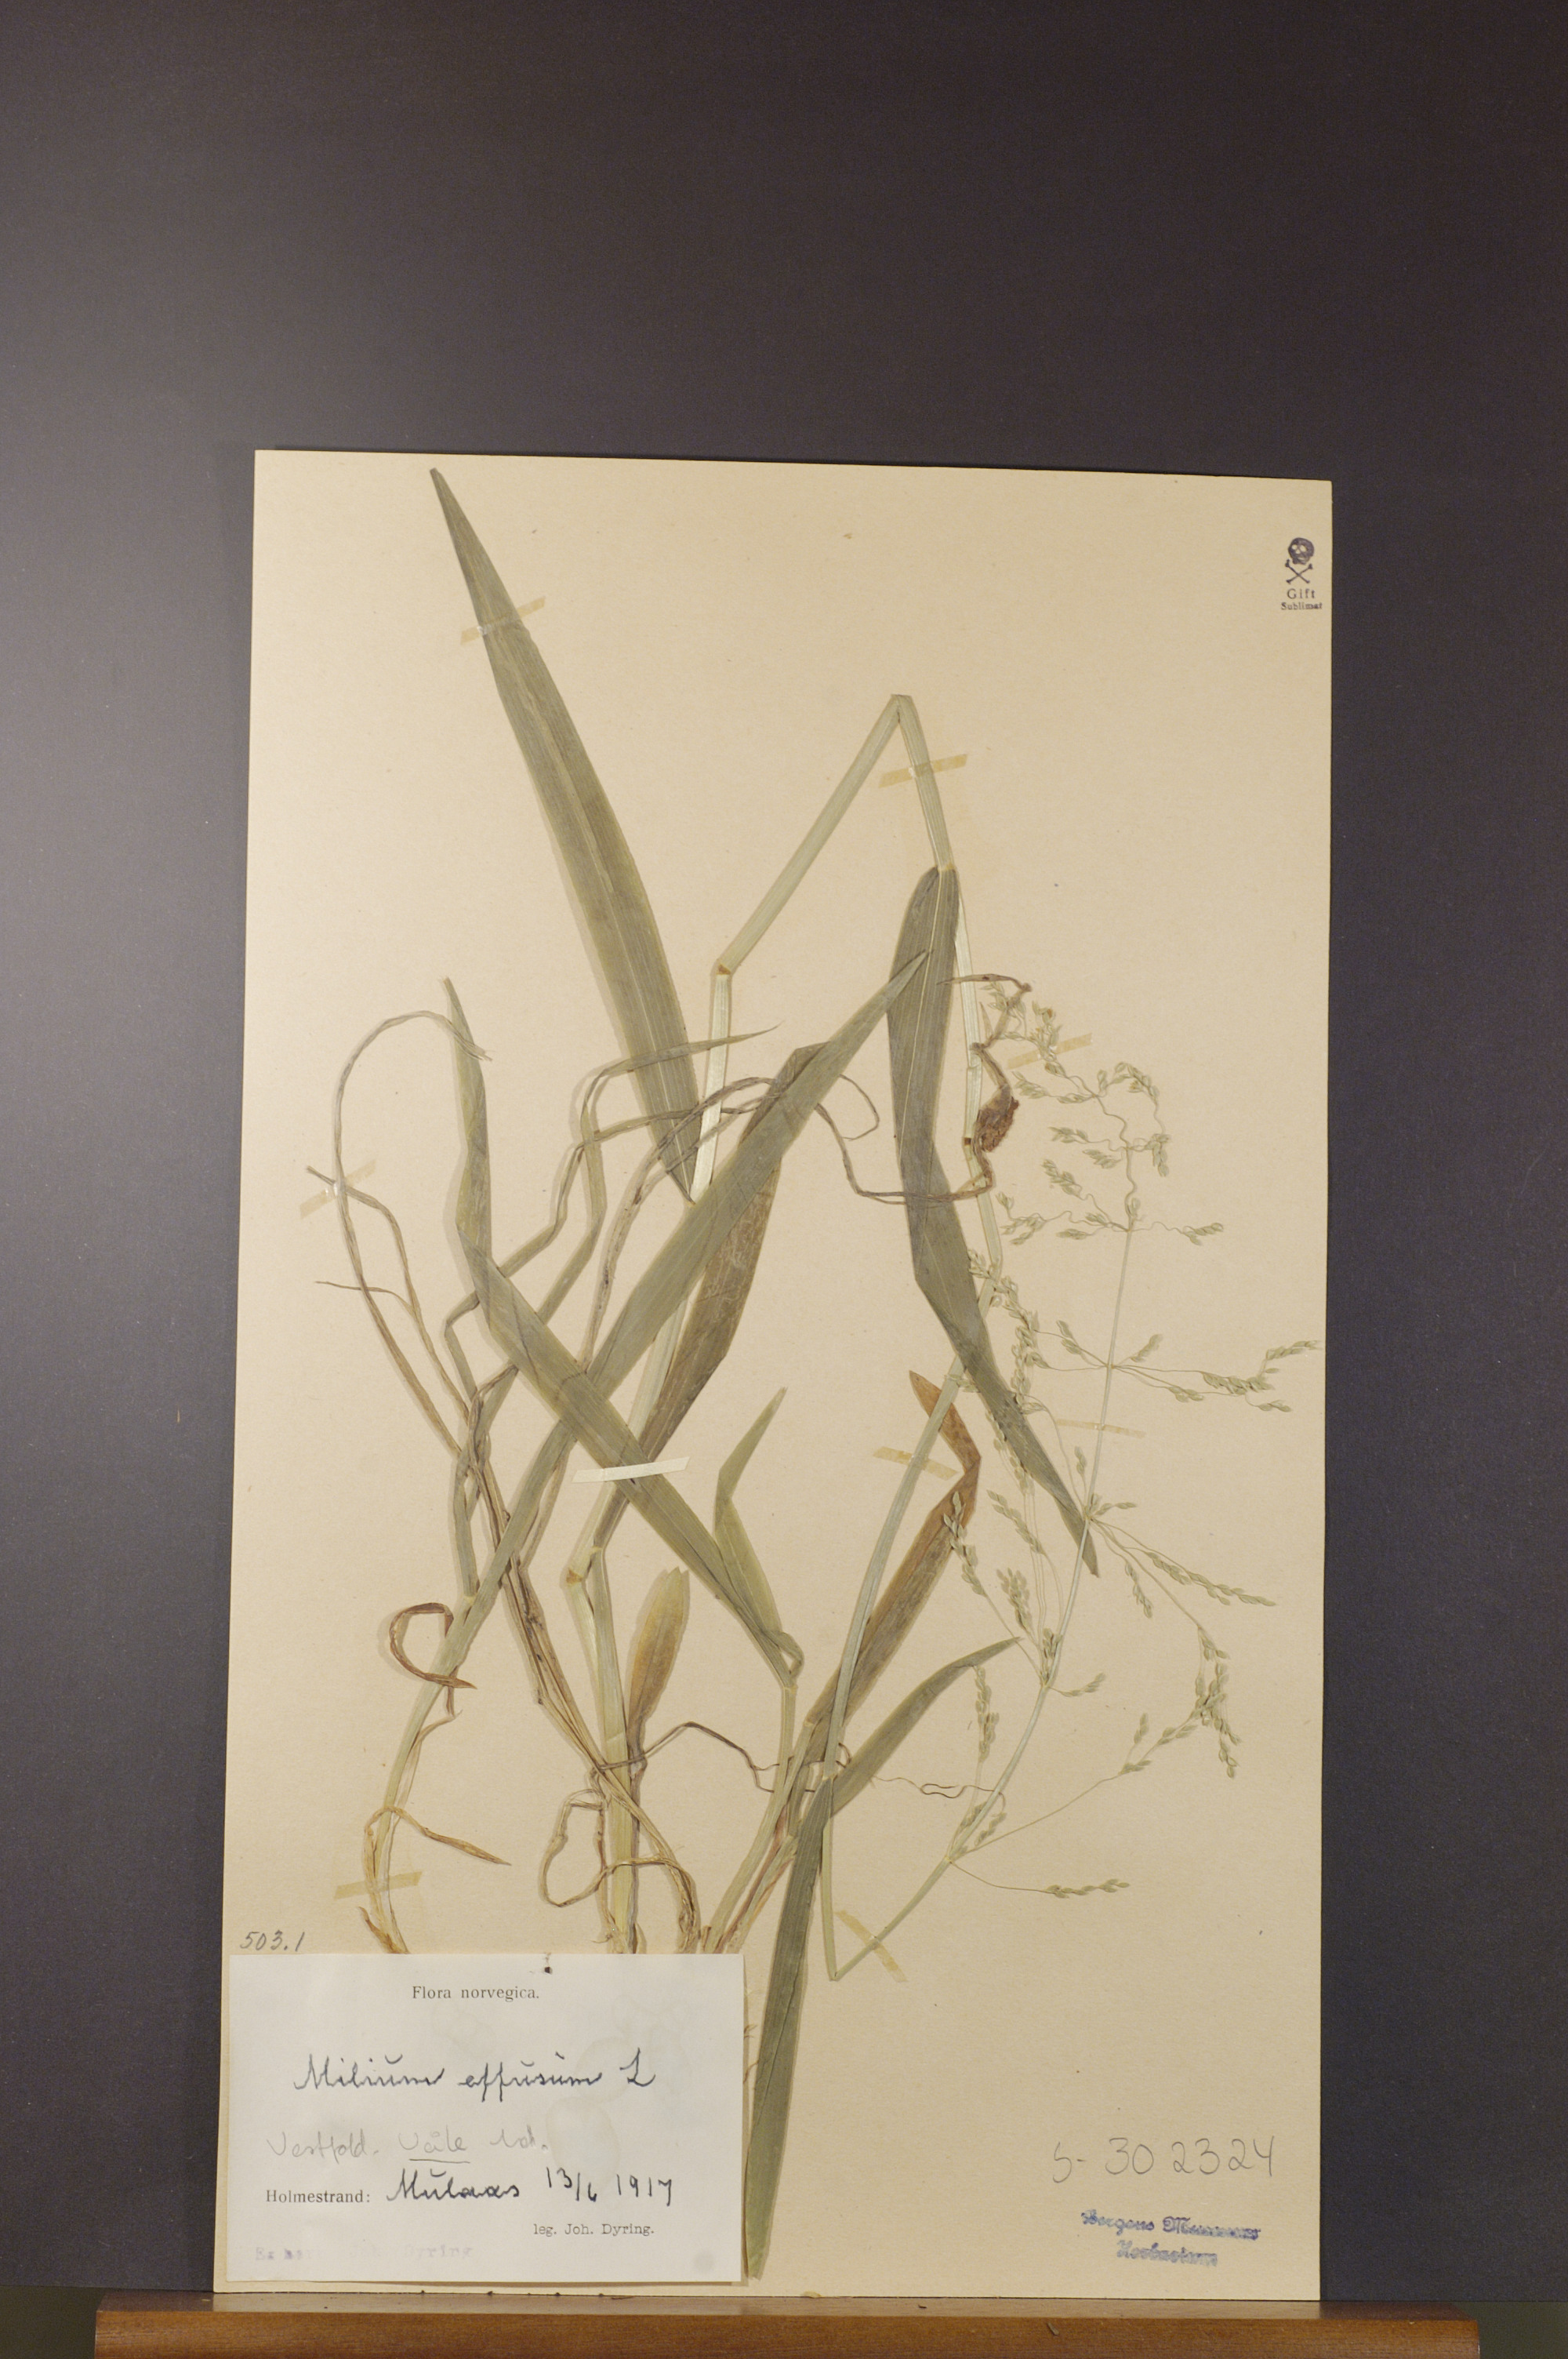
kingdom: Plantae
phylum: Tracheophyta
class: Liliopsida
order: Poales
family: Poaceae
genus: Milium
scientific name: Milium effusum
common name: Wood millet
